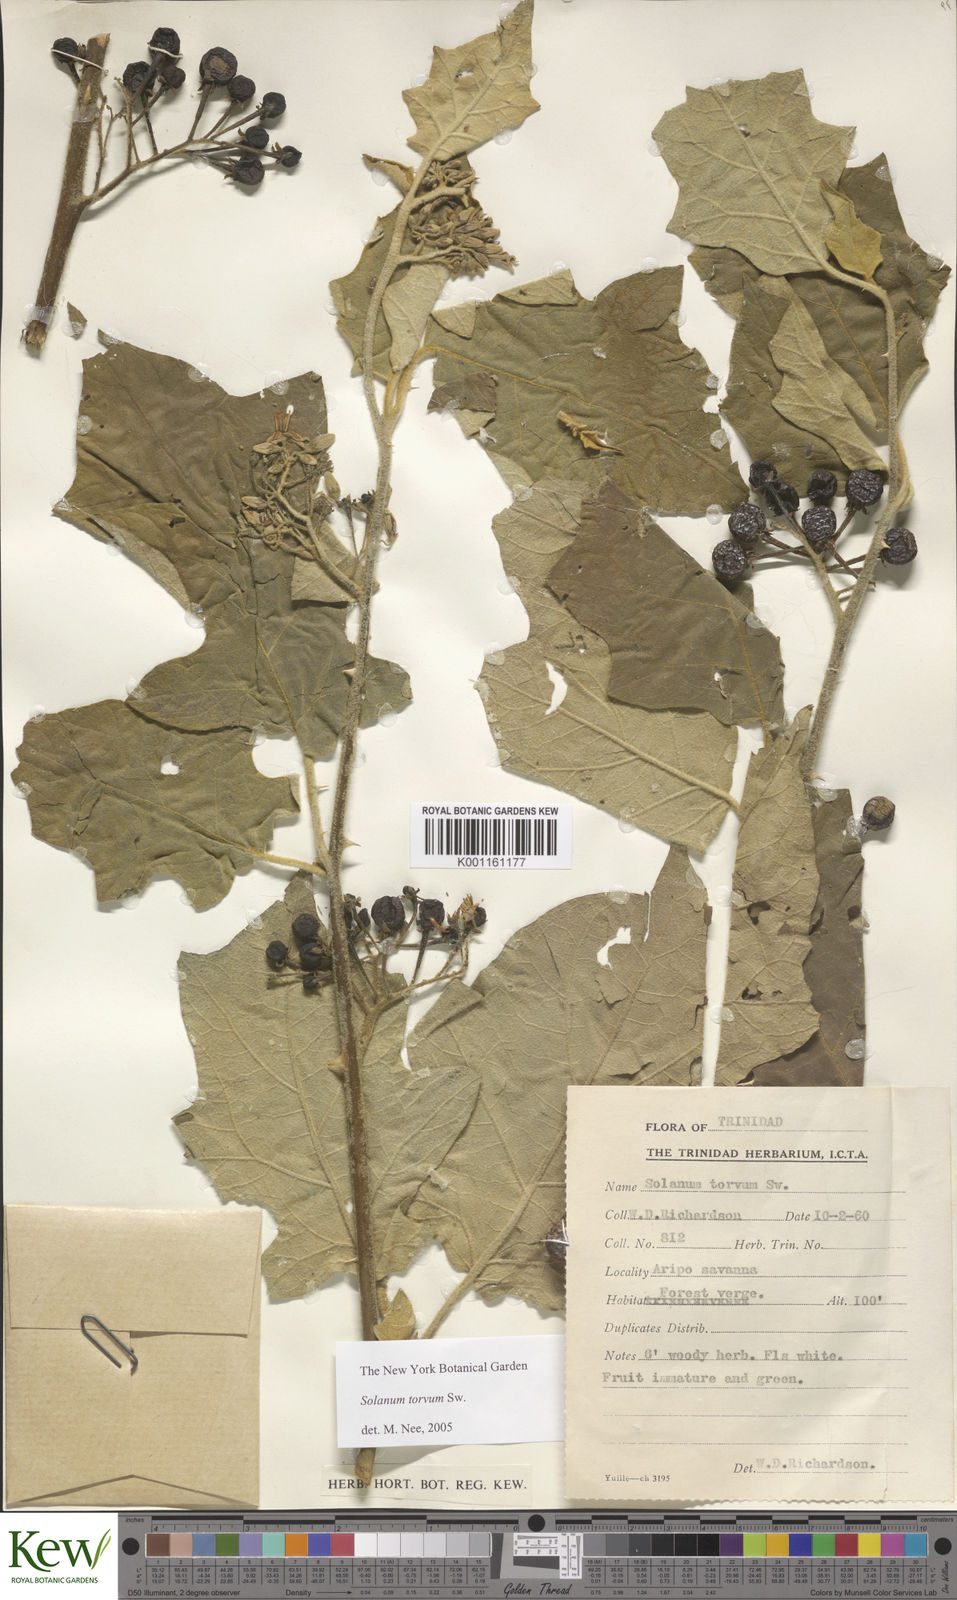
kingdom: Plantae
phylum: Tracheophyta
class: Magnoliopsida
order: Solanales
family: Solanaceae
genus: Solanum
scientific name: Solanum torvum
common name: Turkey berry
